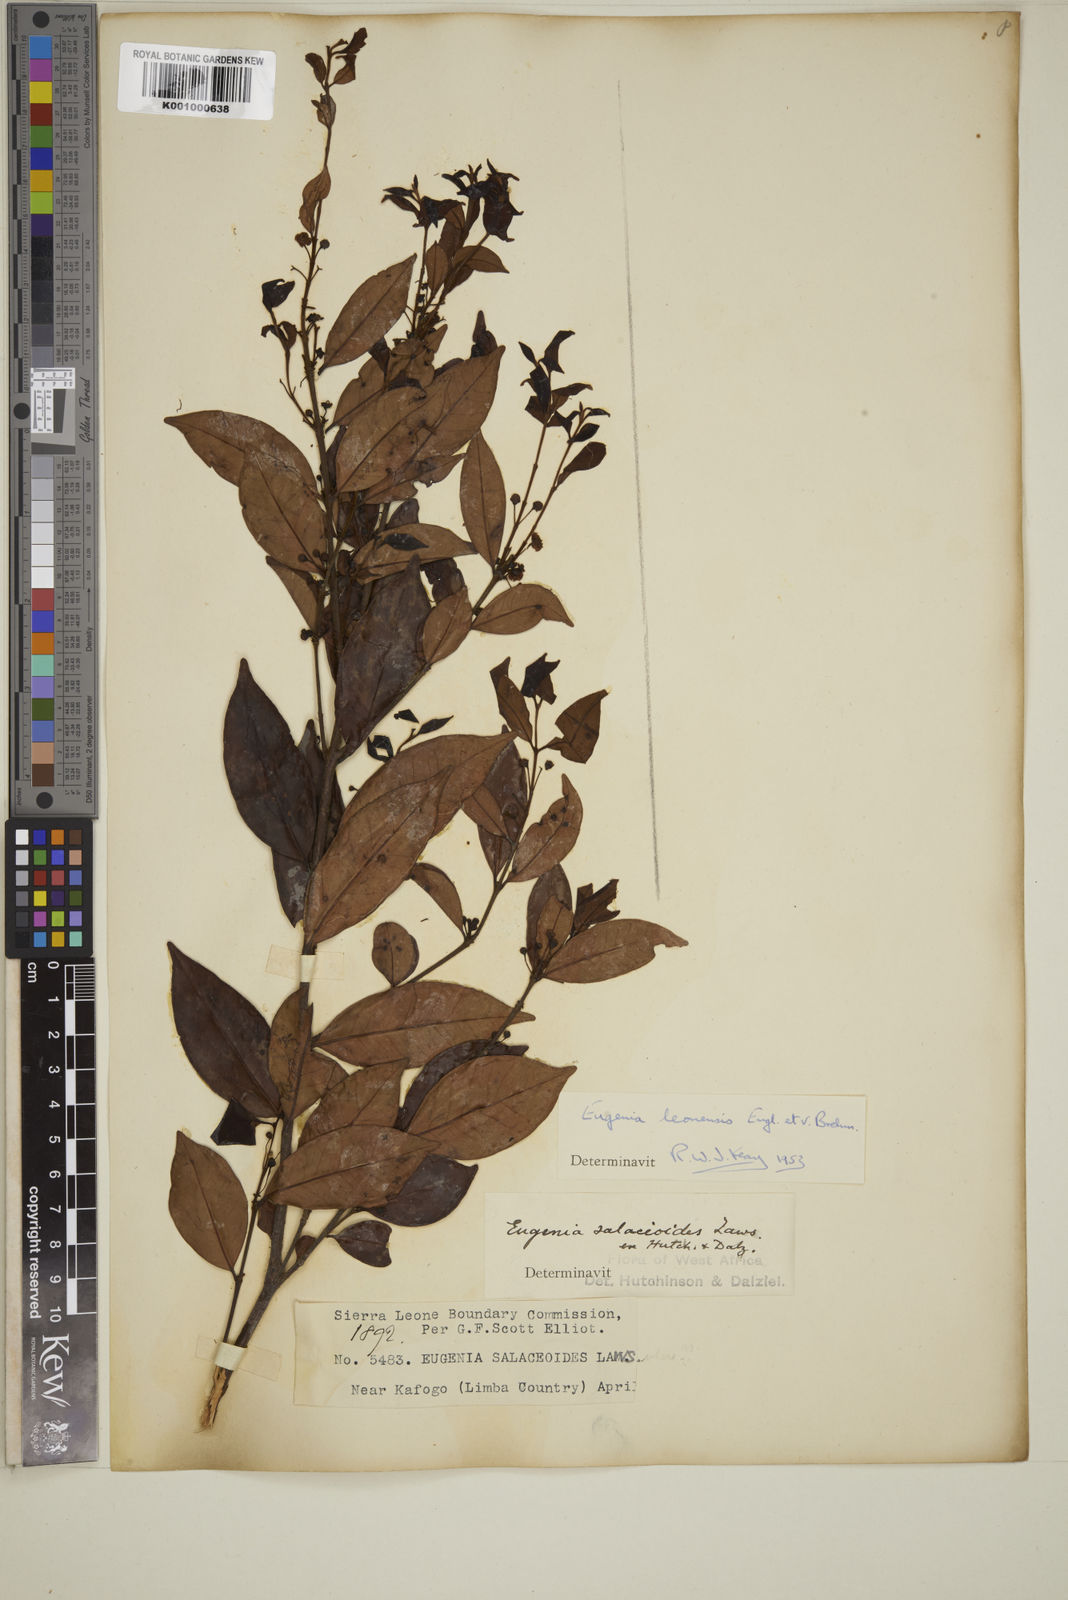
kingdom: Plantae
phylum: Tracheophyta
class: Magnoliopsida
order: Myrtales
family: Myrtaceae
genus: Eugenia
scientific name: Eugenia leonensis
